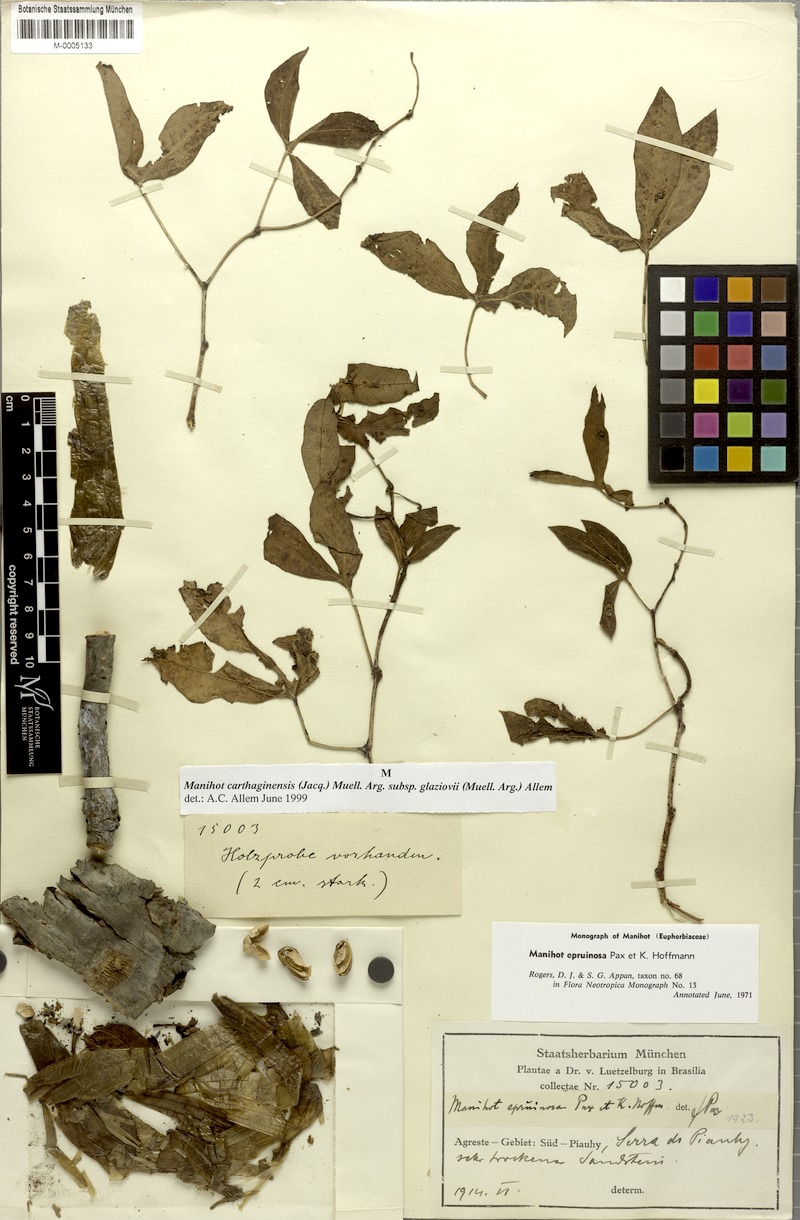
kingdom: Plantae
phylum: Tracheophyta
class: Magnoliopsida
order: Malpighiales
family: Euphorbiaceae
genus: Manihot
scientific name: Manihot epruinosa
